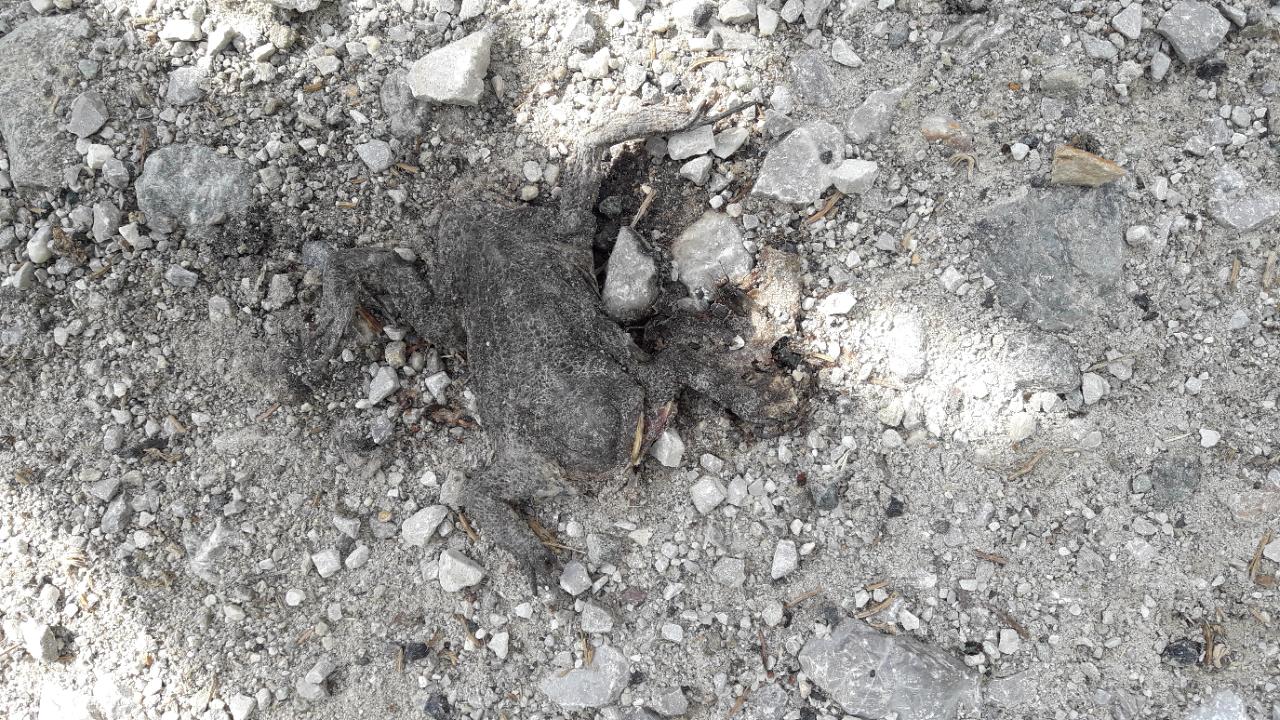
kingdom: Animalia
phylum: Chordata
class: Amphibia
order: Anura
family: Bufonidae
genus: Bufo
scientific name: Bufo bufo
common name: Common toad
